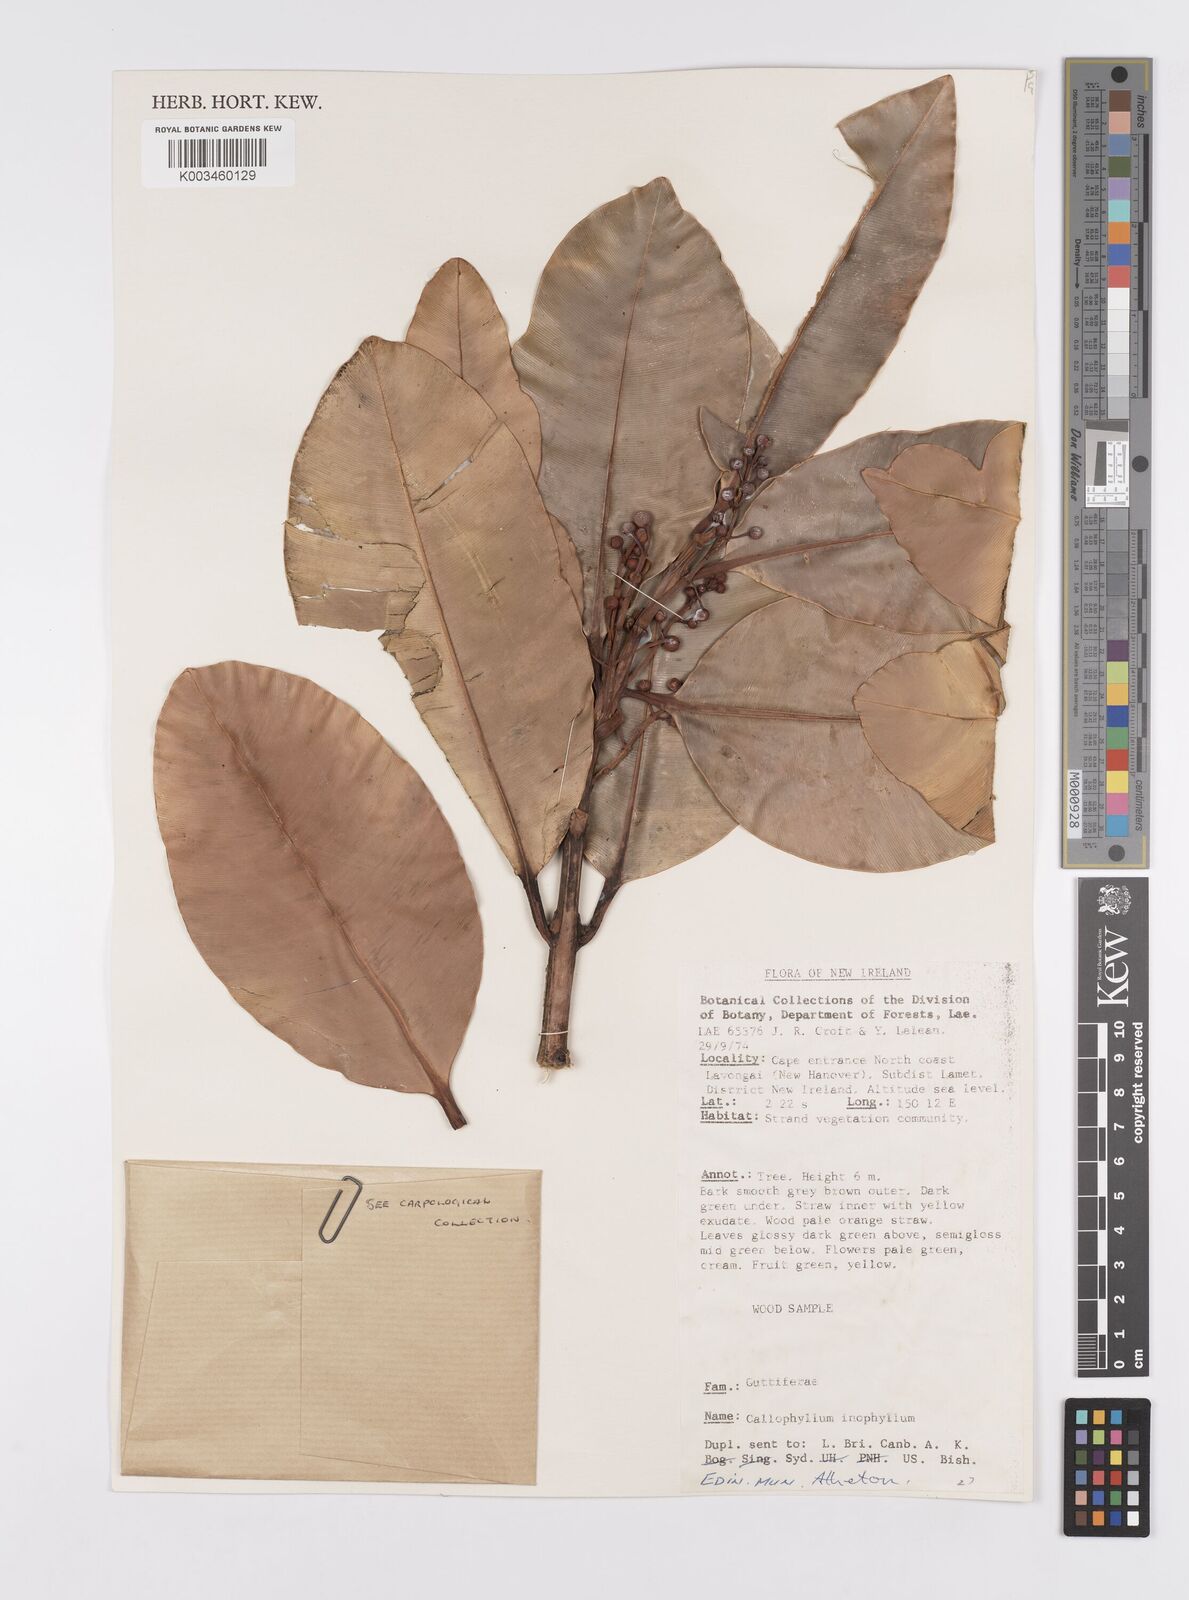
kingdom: Plantae
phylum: Tracheophyta
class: Magnoliopsida
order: Malpighiales
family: Calophyllaceae
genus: Calophyllum
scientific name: Calophyllum inophyllum
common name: Alexandrian laurel
